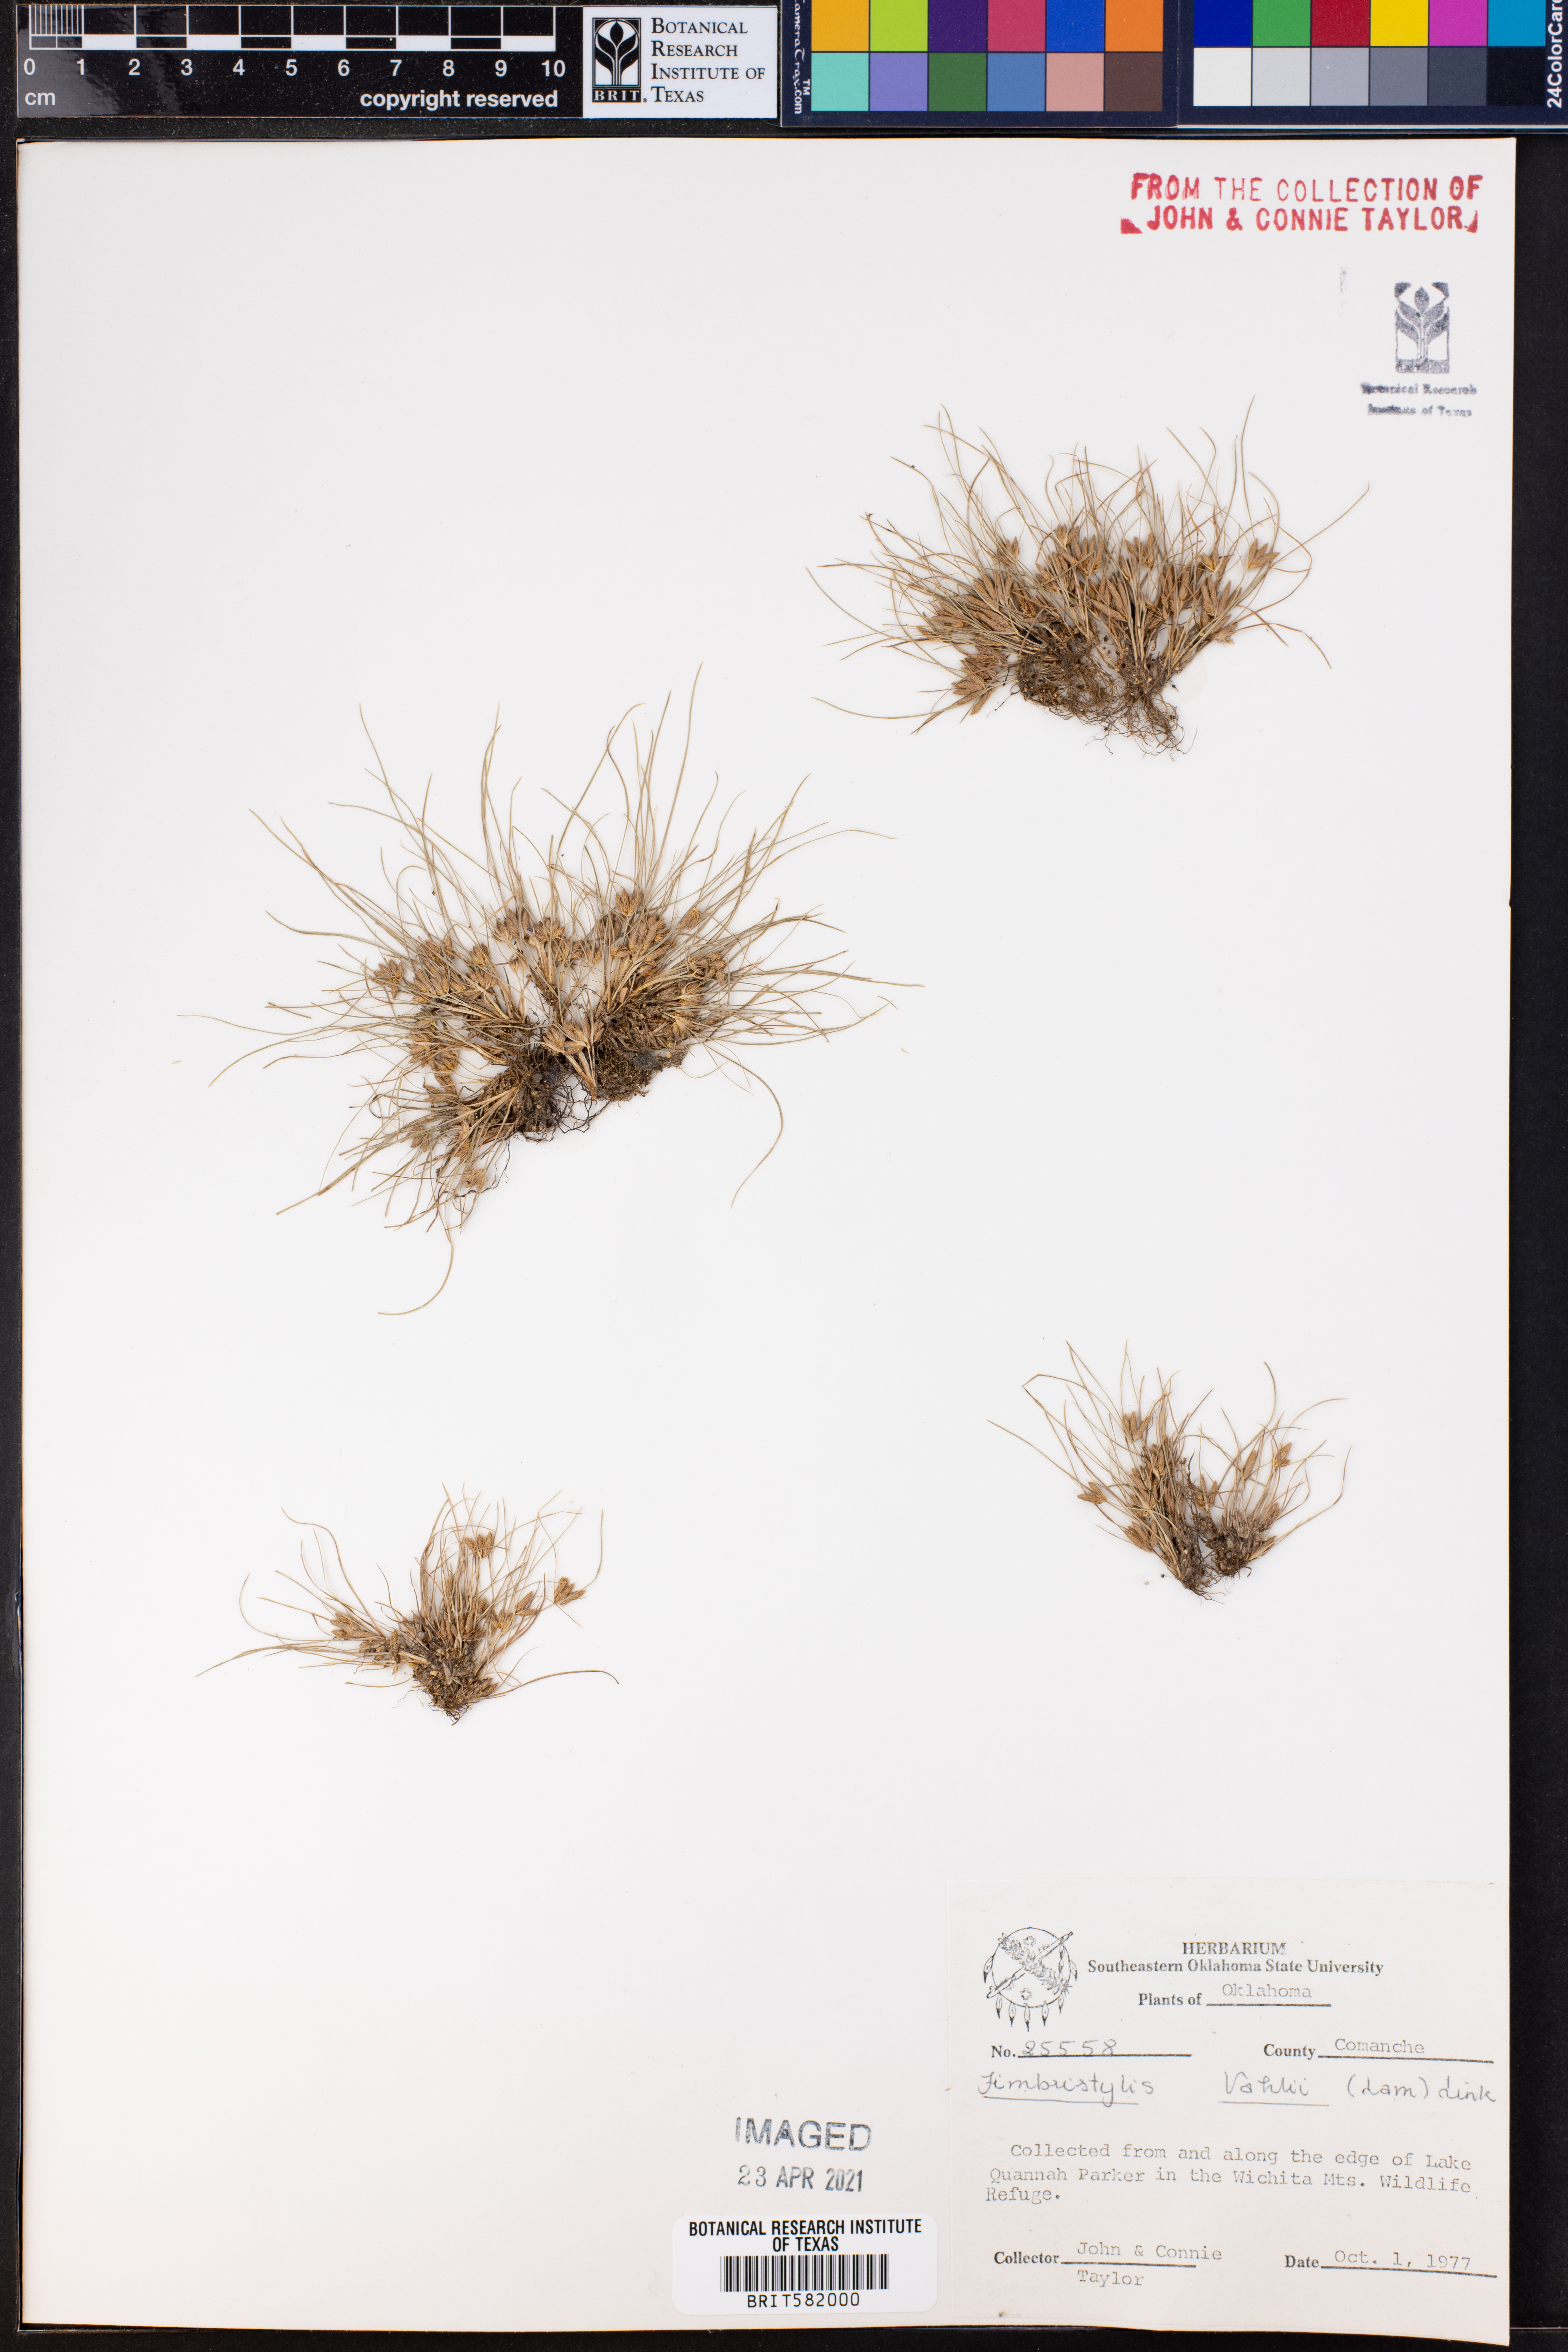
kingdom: Plantae
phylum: Tracheophyta
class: Liliopsida
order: Poales
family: Cyperaceae
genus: Fimbristylis
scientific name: Fimbristylis vahlii
